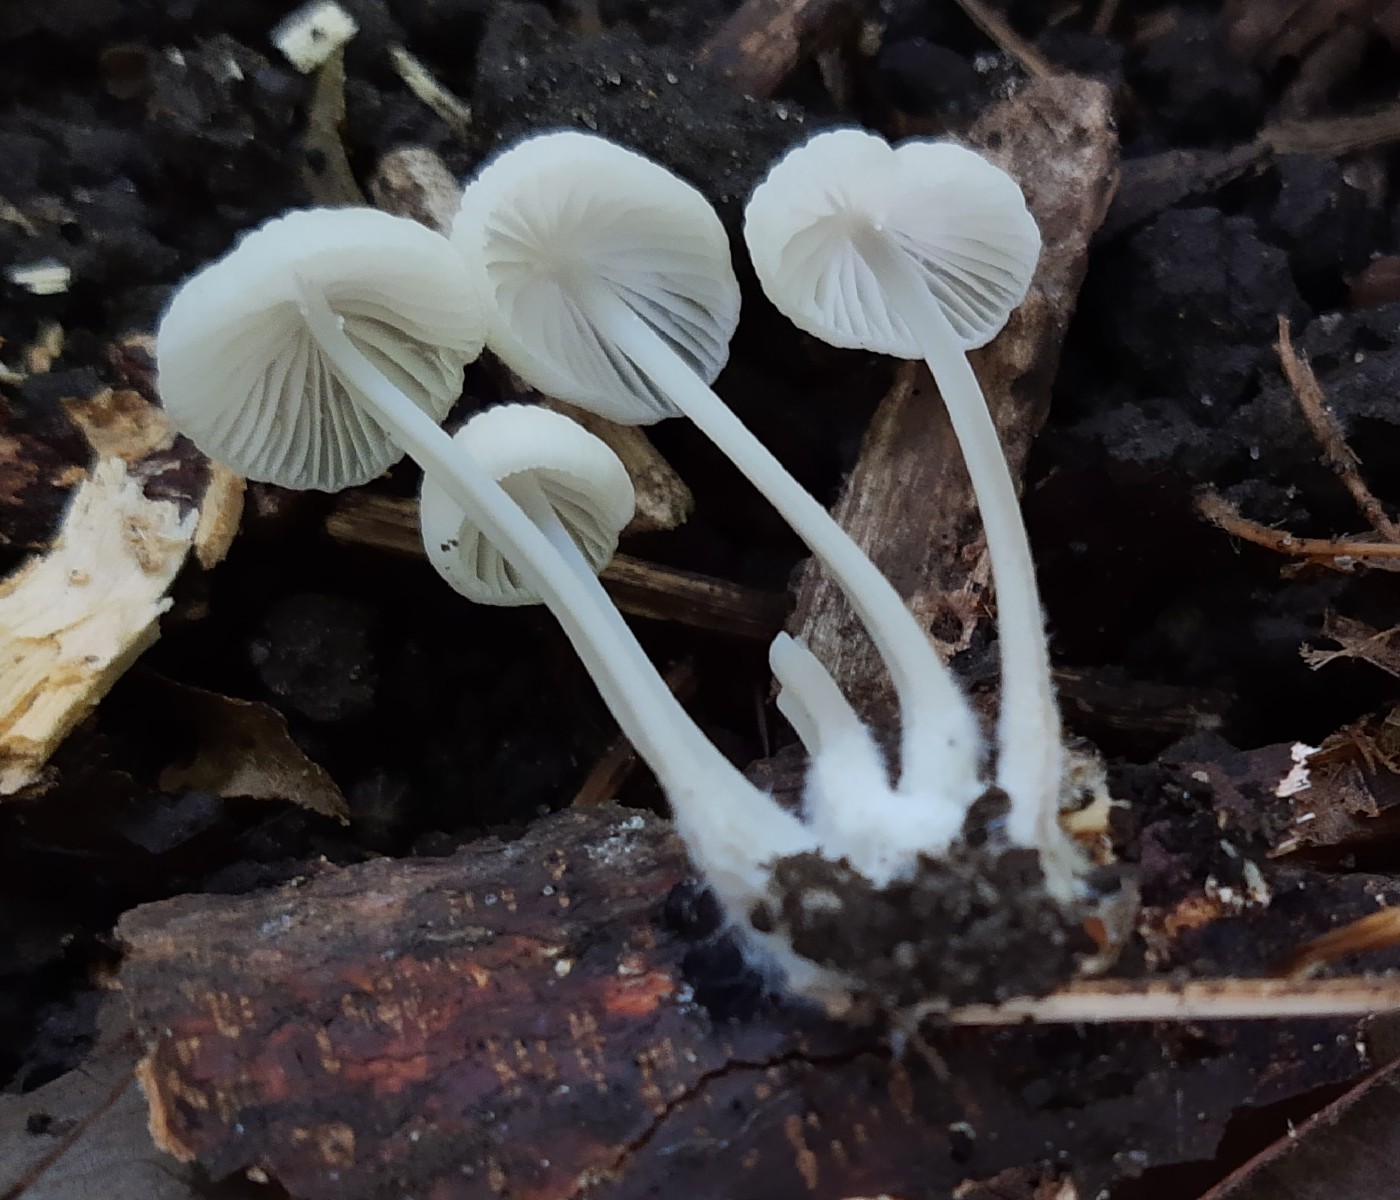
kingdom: Fungi
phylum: Basidiomycota
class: Agaricomycetes
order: Agaricales
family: Mycenaceae
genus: Mycena
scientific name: Mycena
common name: huesvamp
